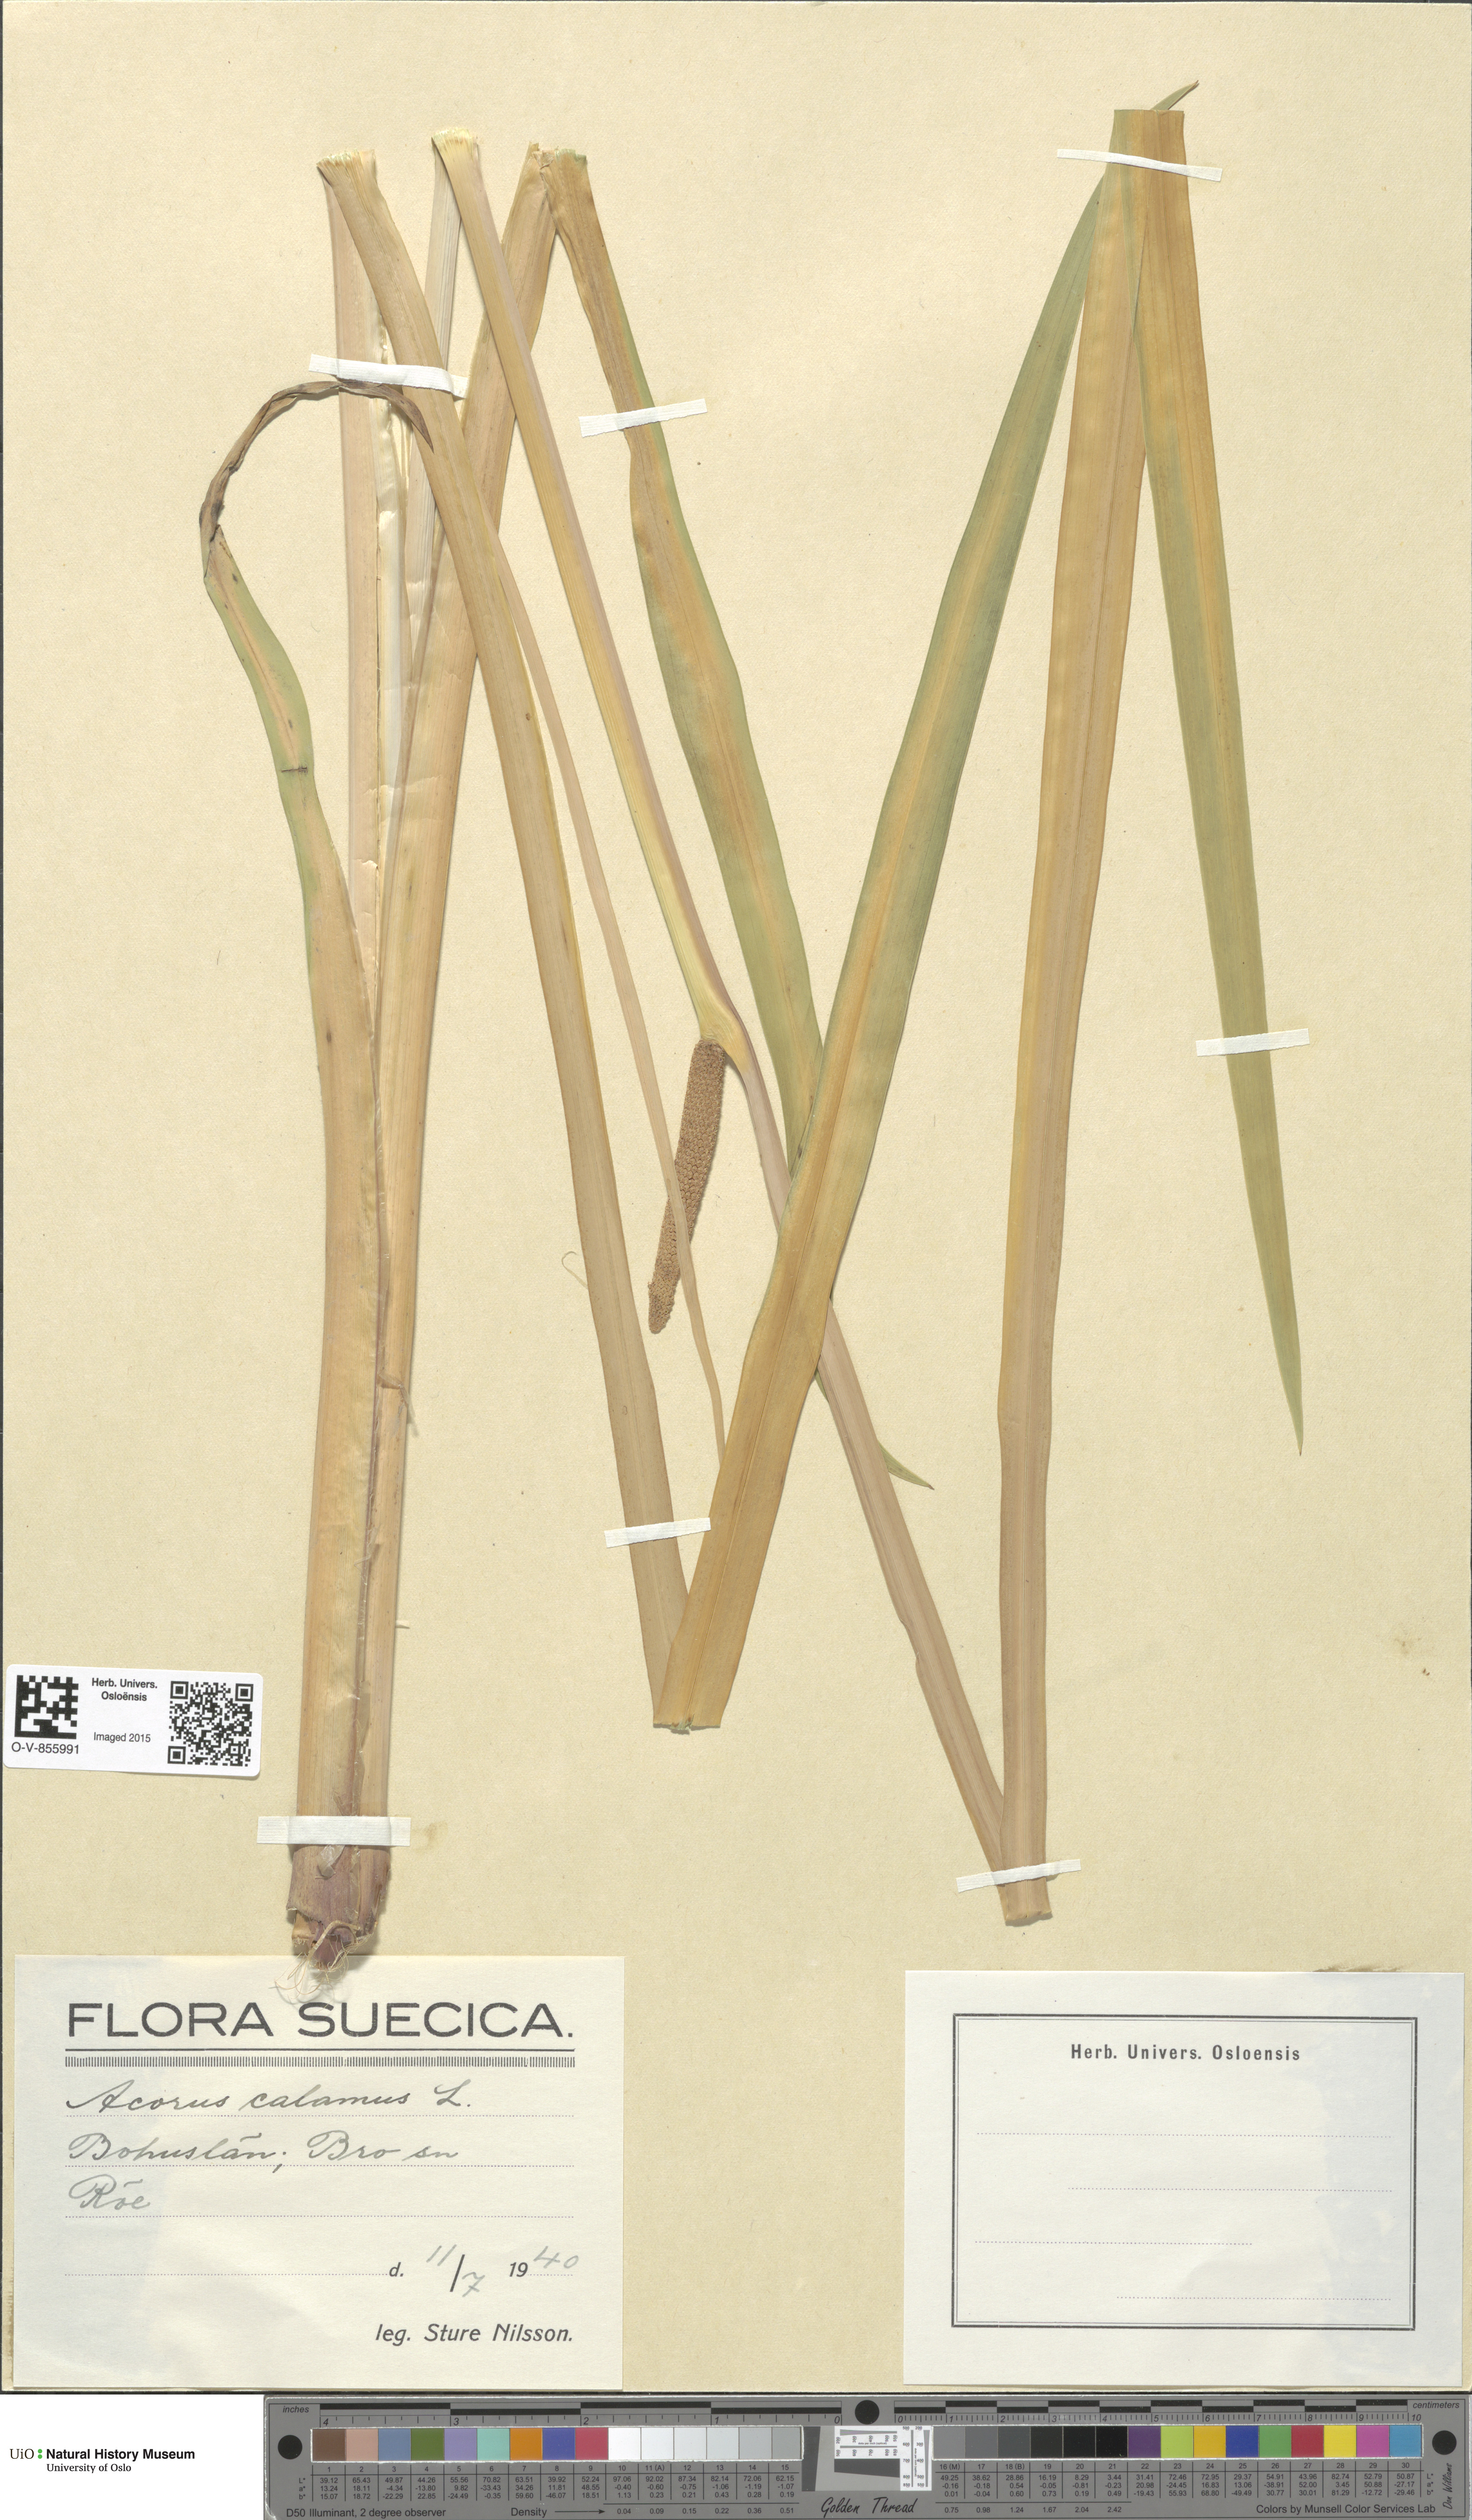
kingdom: Plantae
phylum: Tracheophyta
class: Liliopsida
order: Acorales
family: Acoraceae
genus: Acorus
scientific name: Acorus calamus
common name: Sweet-flag
